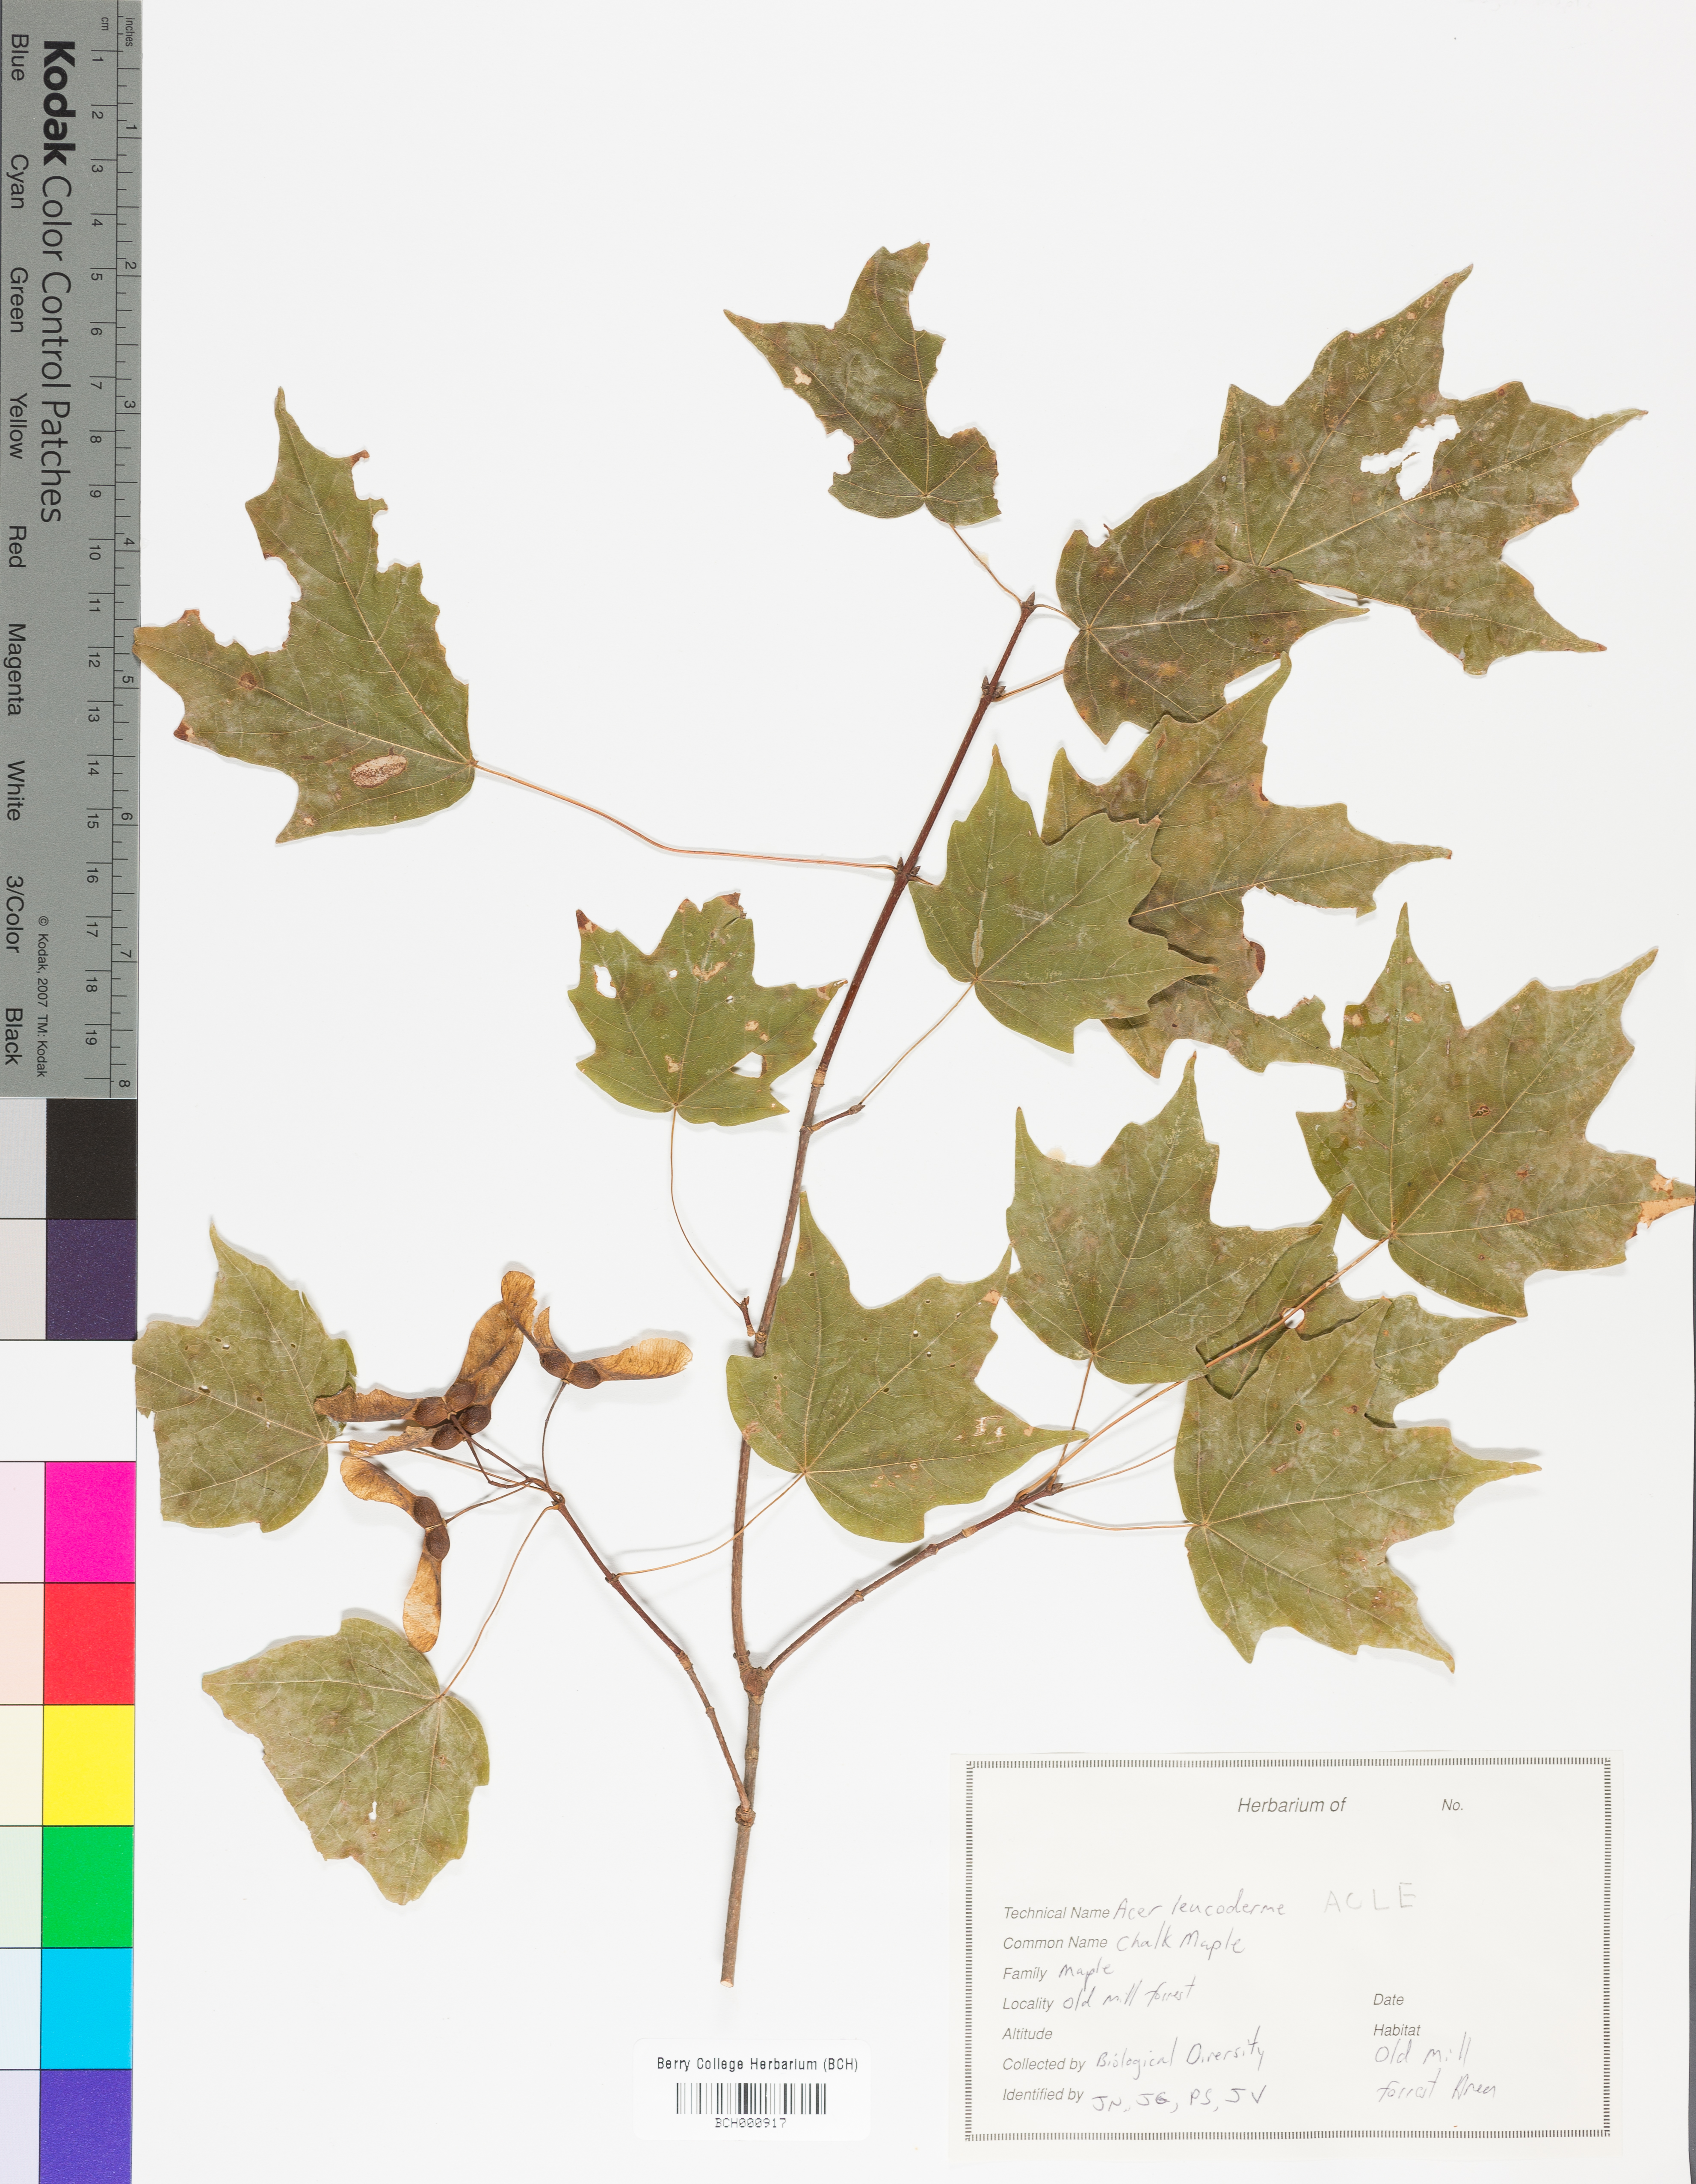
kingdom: Plantae
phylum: Tracheophyta
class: Magnoliopsida
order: Sapindales
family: Sapindaceae
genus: Acer
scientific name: Acer leucoderme
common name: Chalk maple
